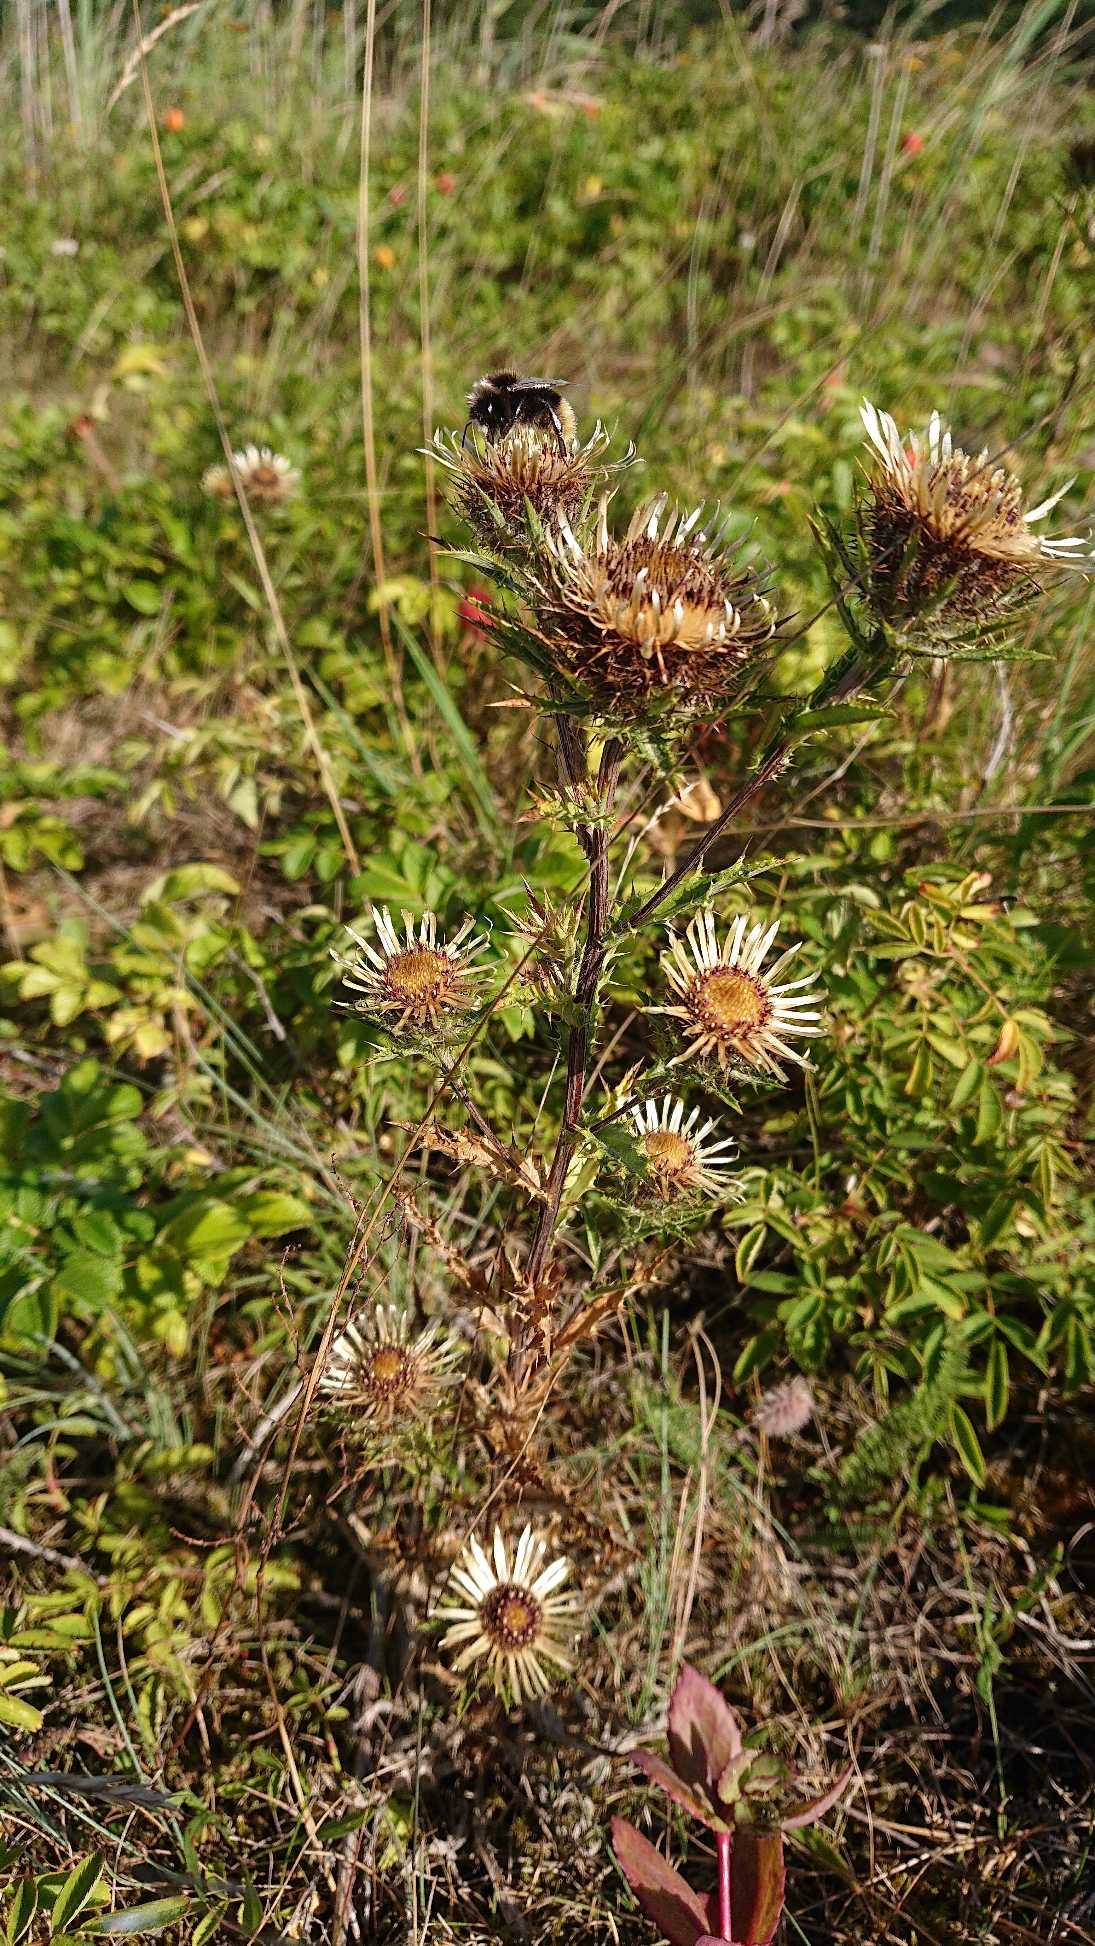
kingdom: Plantae
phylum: Tracheophyta
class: Magnoliopsida
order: Asterales
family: Asteraceae
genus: Carlina
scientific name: Carlina vulgaris
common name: Bakketidsel
